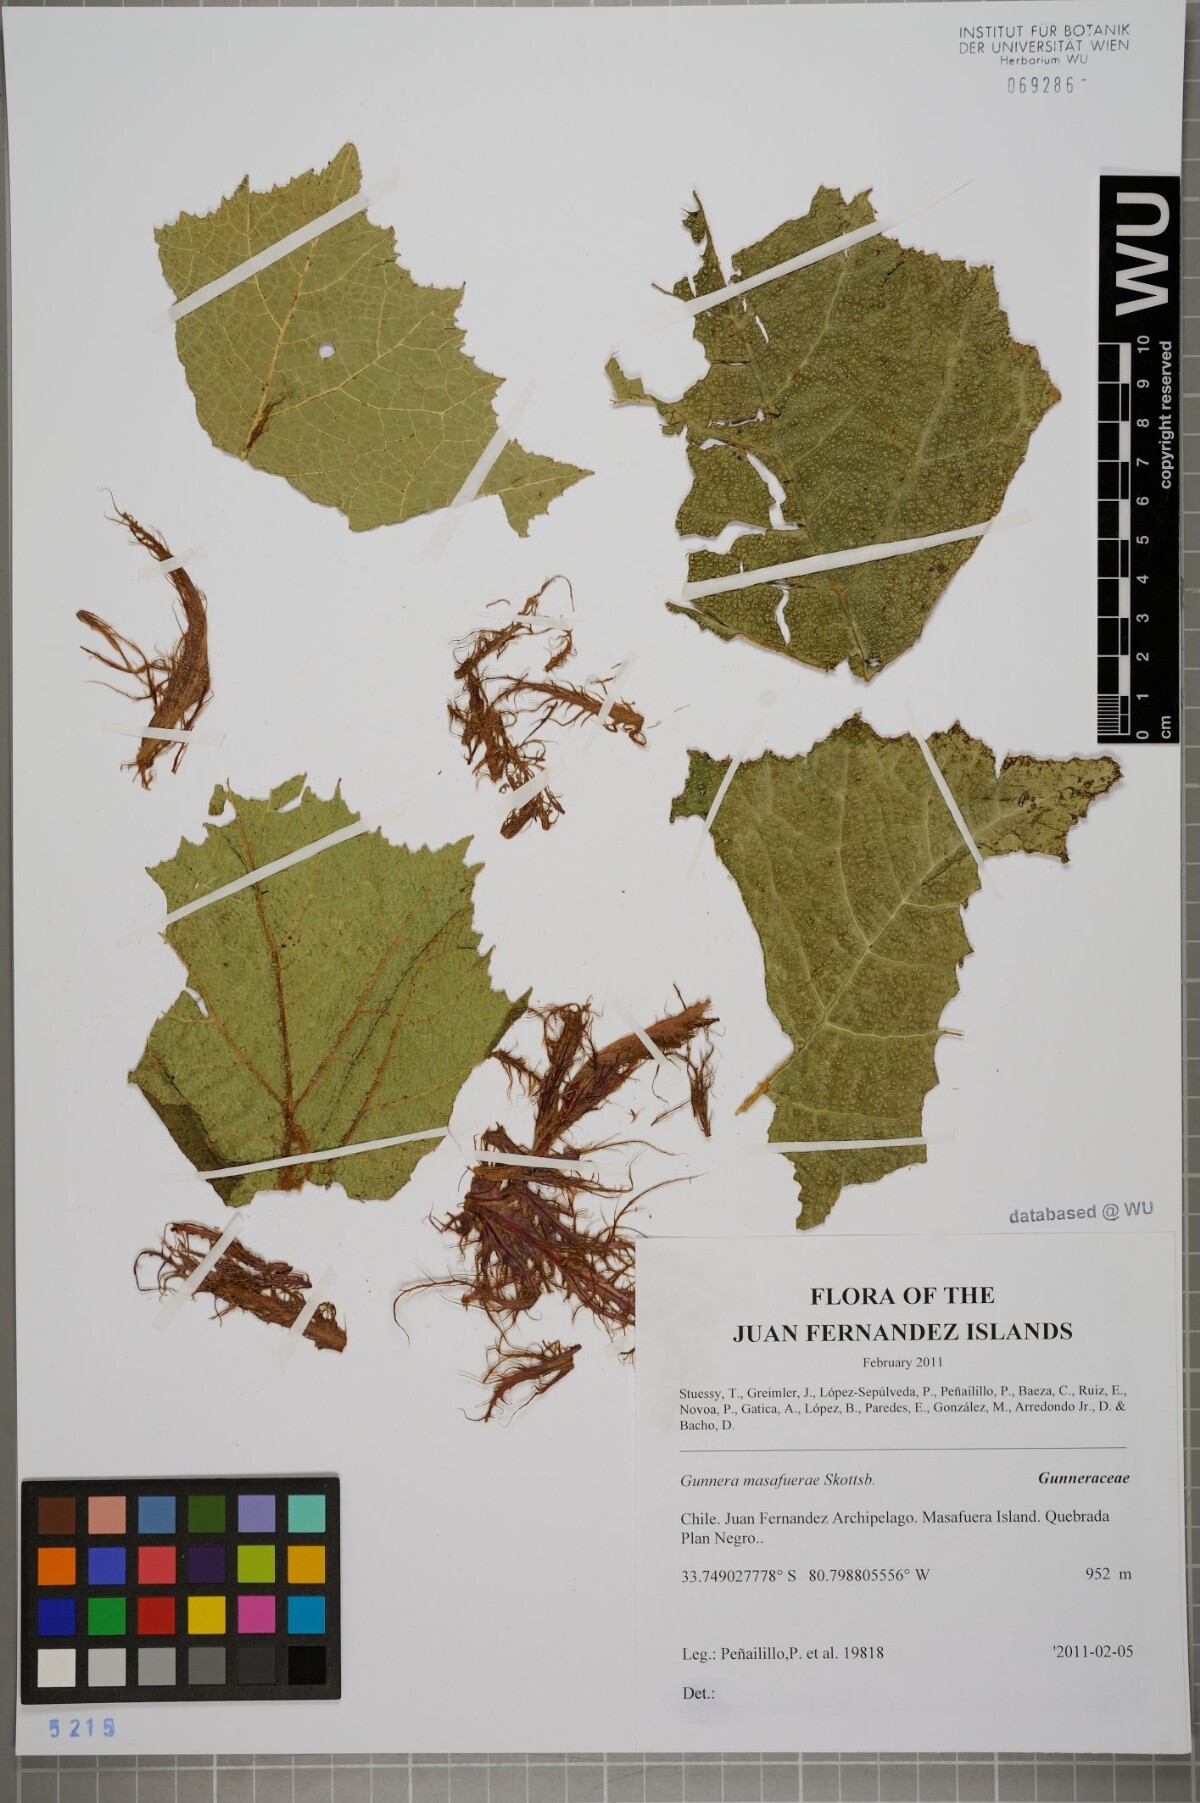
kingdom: Plantae
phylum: Tracheophyta
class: Magnoliopsida
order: Gunnerales
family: Gunneraceae
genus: Gunnera
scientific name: Gunnera masafuerae
